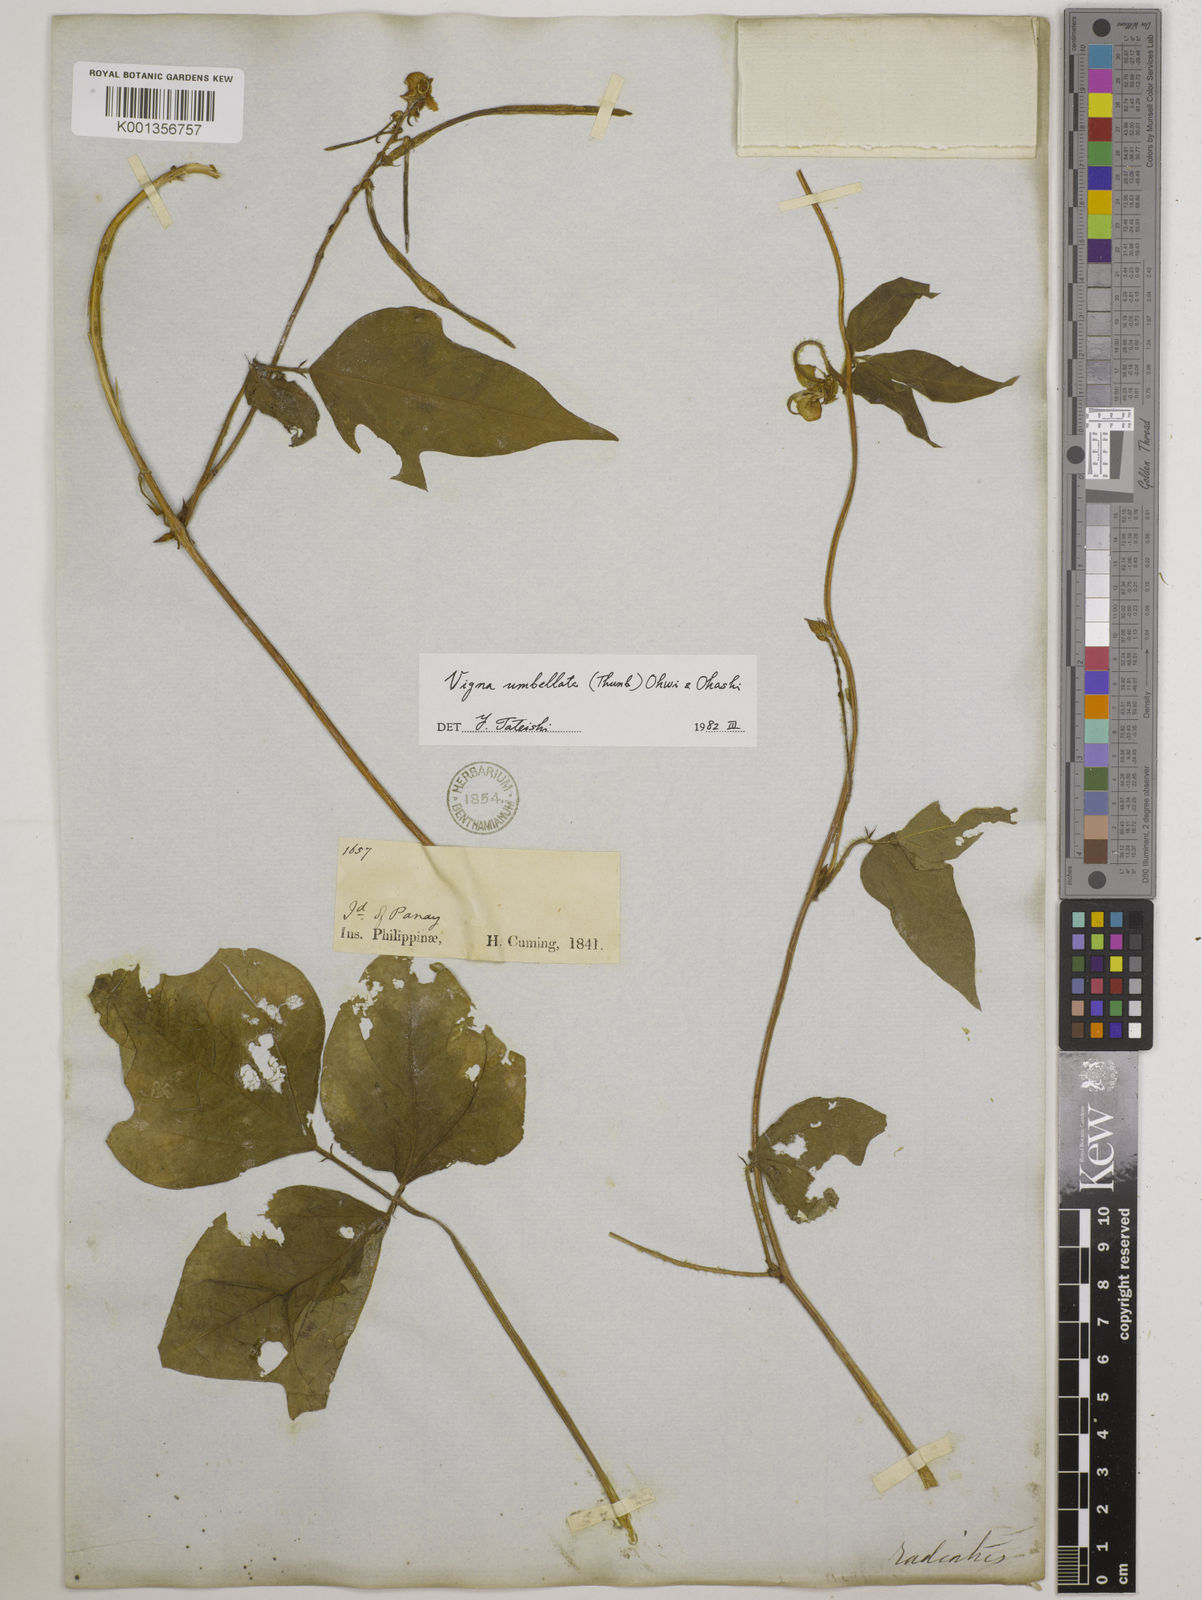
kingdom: Plantae
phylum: Tracheophyta
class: Magnoliopsida
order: Fabales
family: Fabaceae
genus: Vigna
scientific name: Vigna umbellata
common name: Oriental-bean
